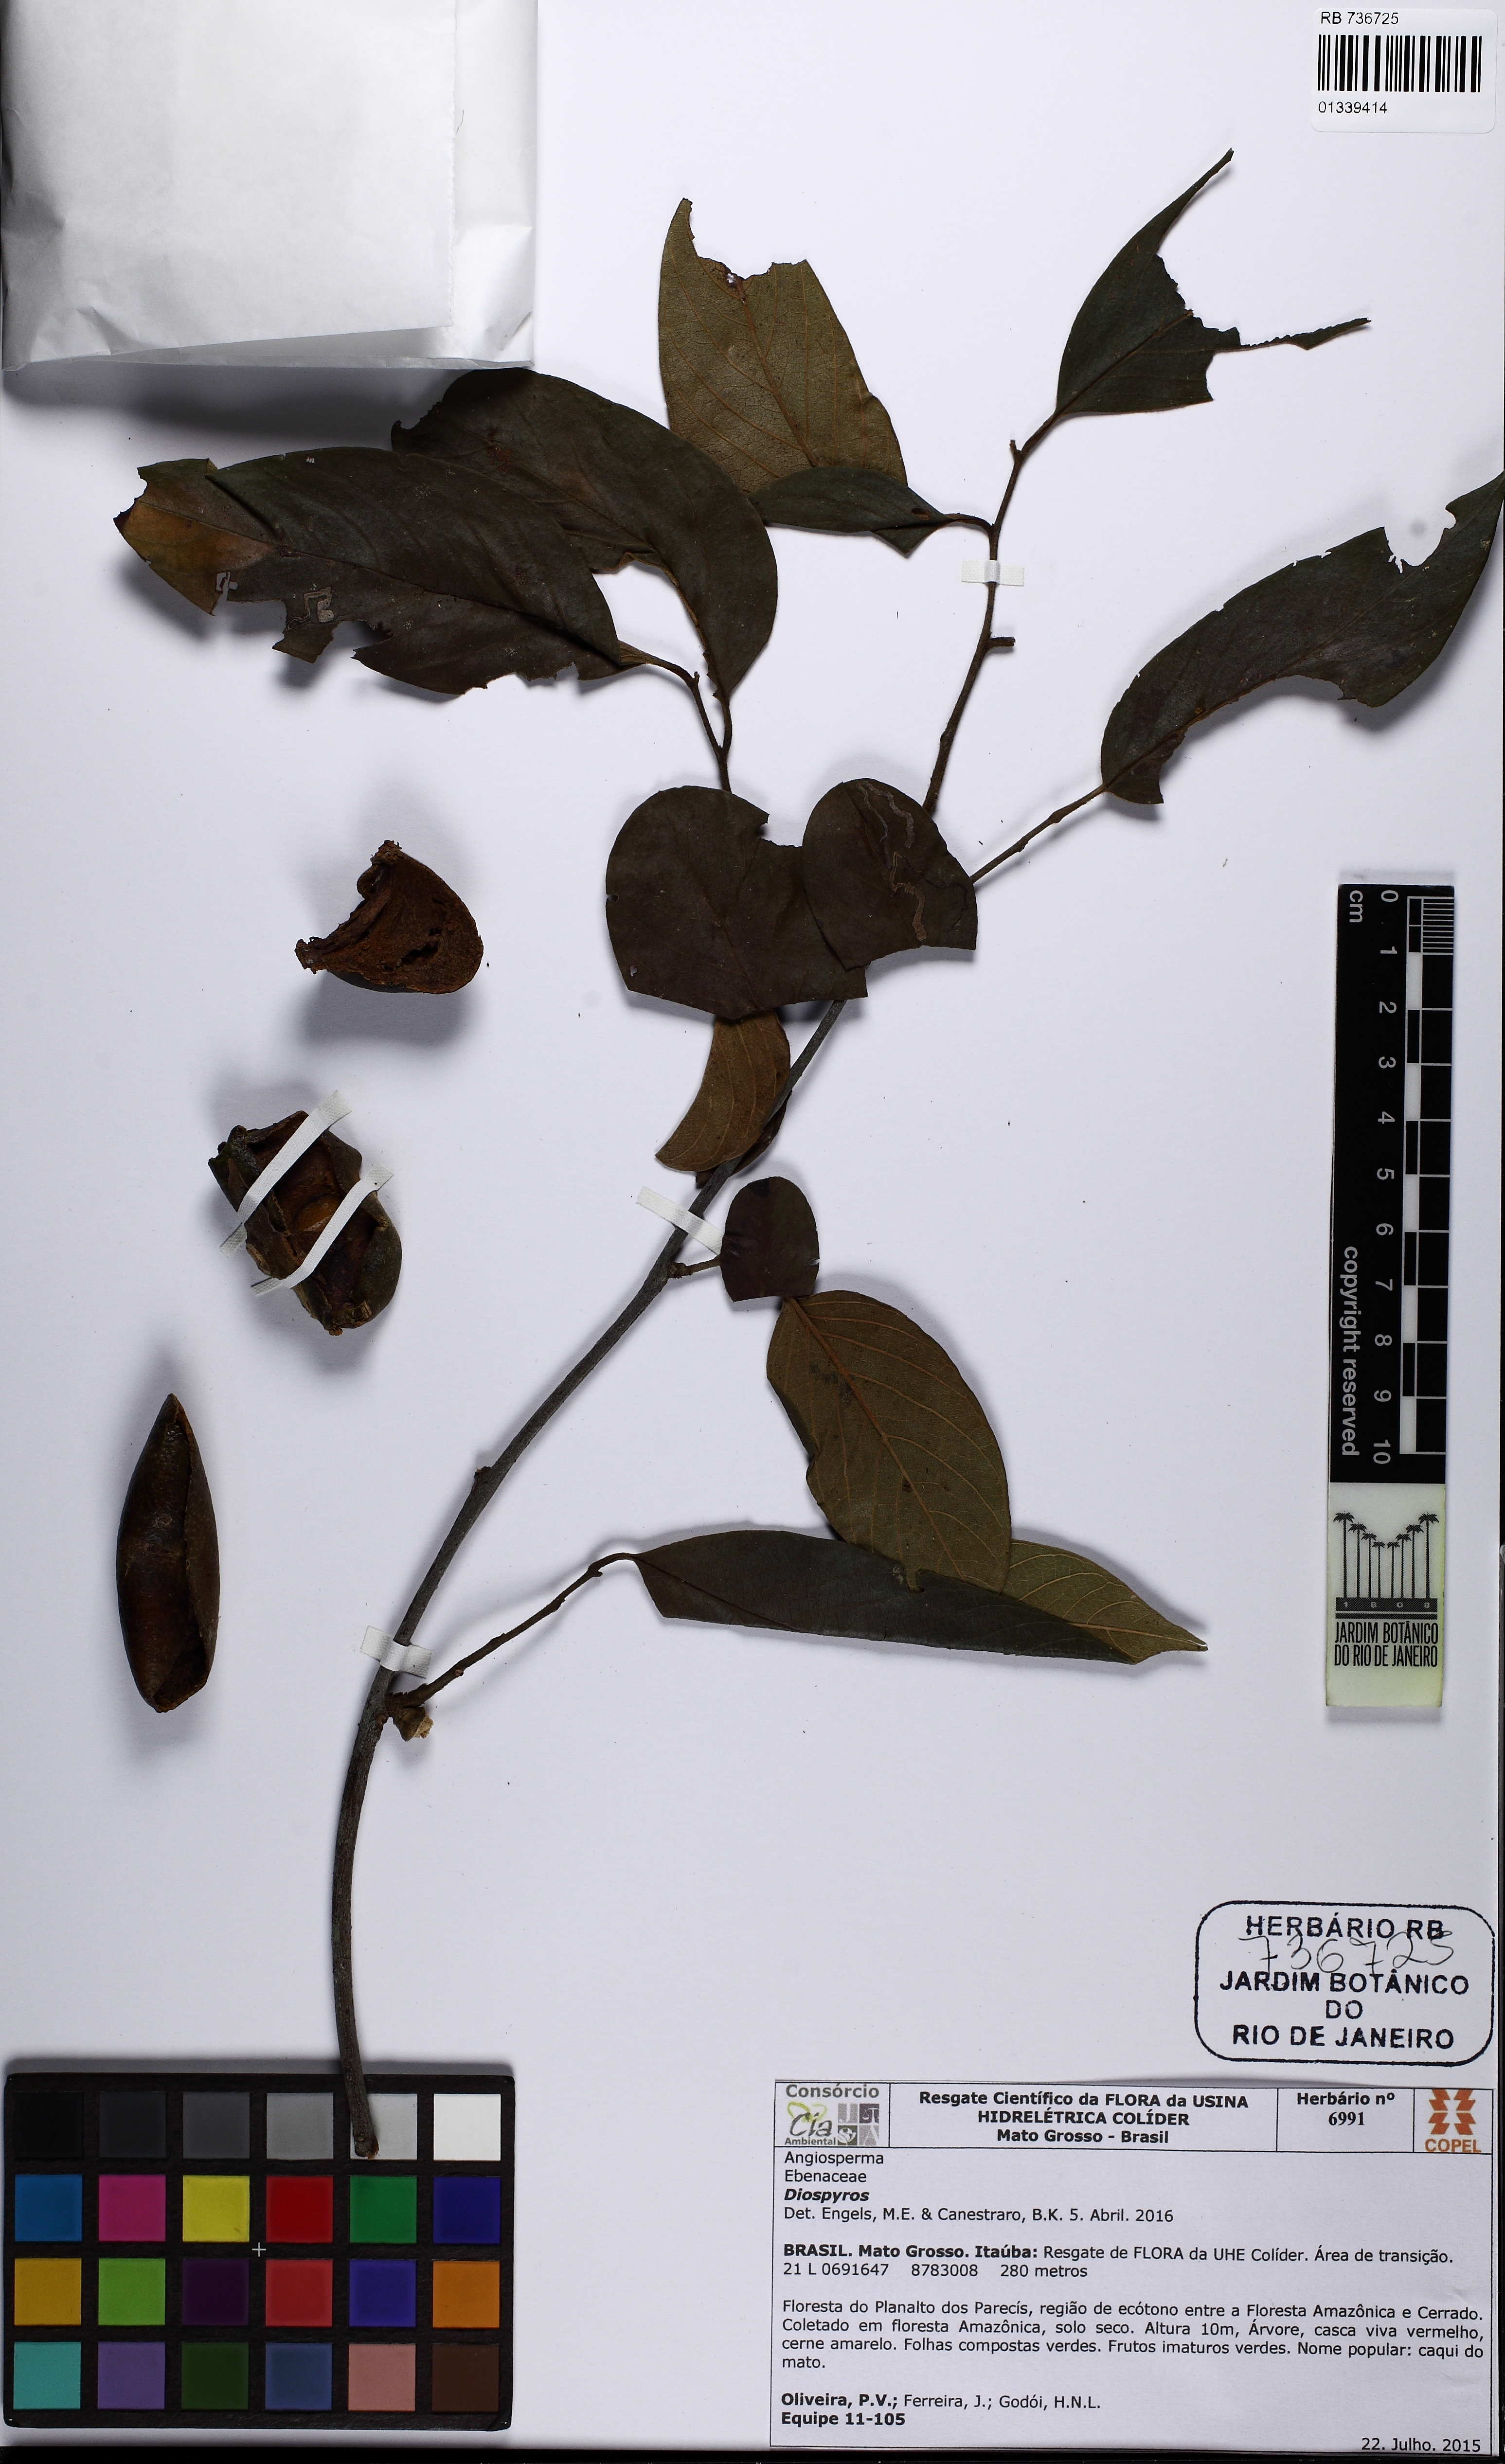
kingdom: Plantae
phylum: Tracheophyta
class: Magnoliopsida
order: Ericales
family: Ebenaceae
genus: Diospyros
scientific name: Diospyros
